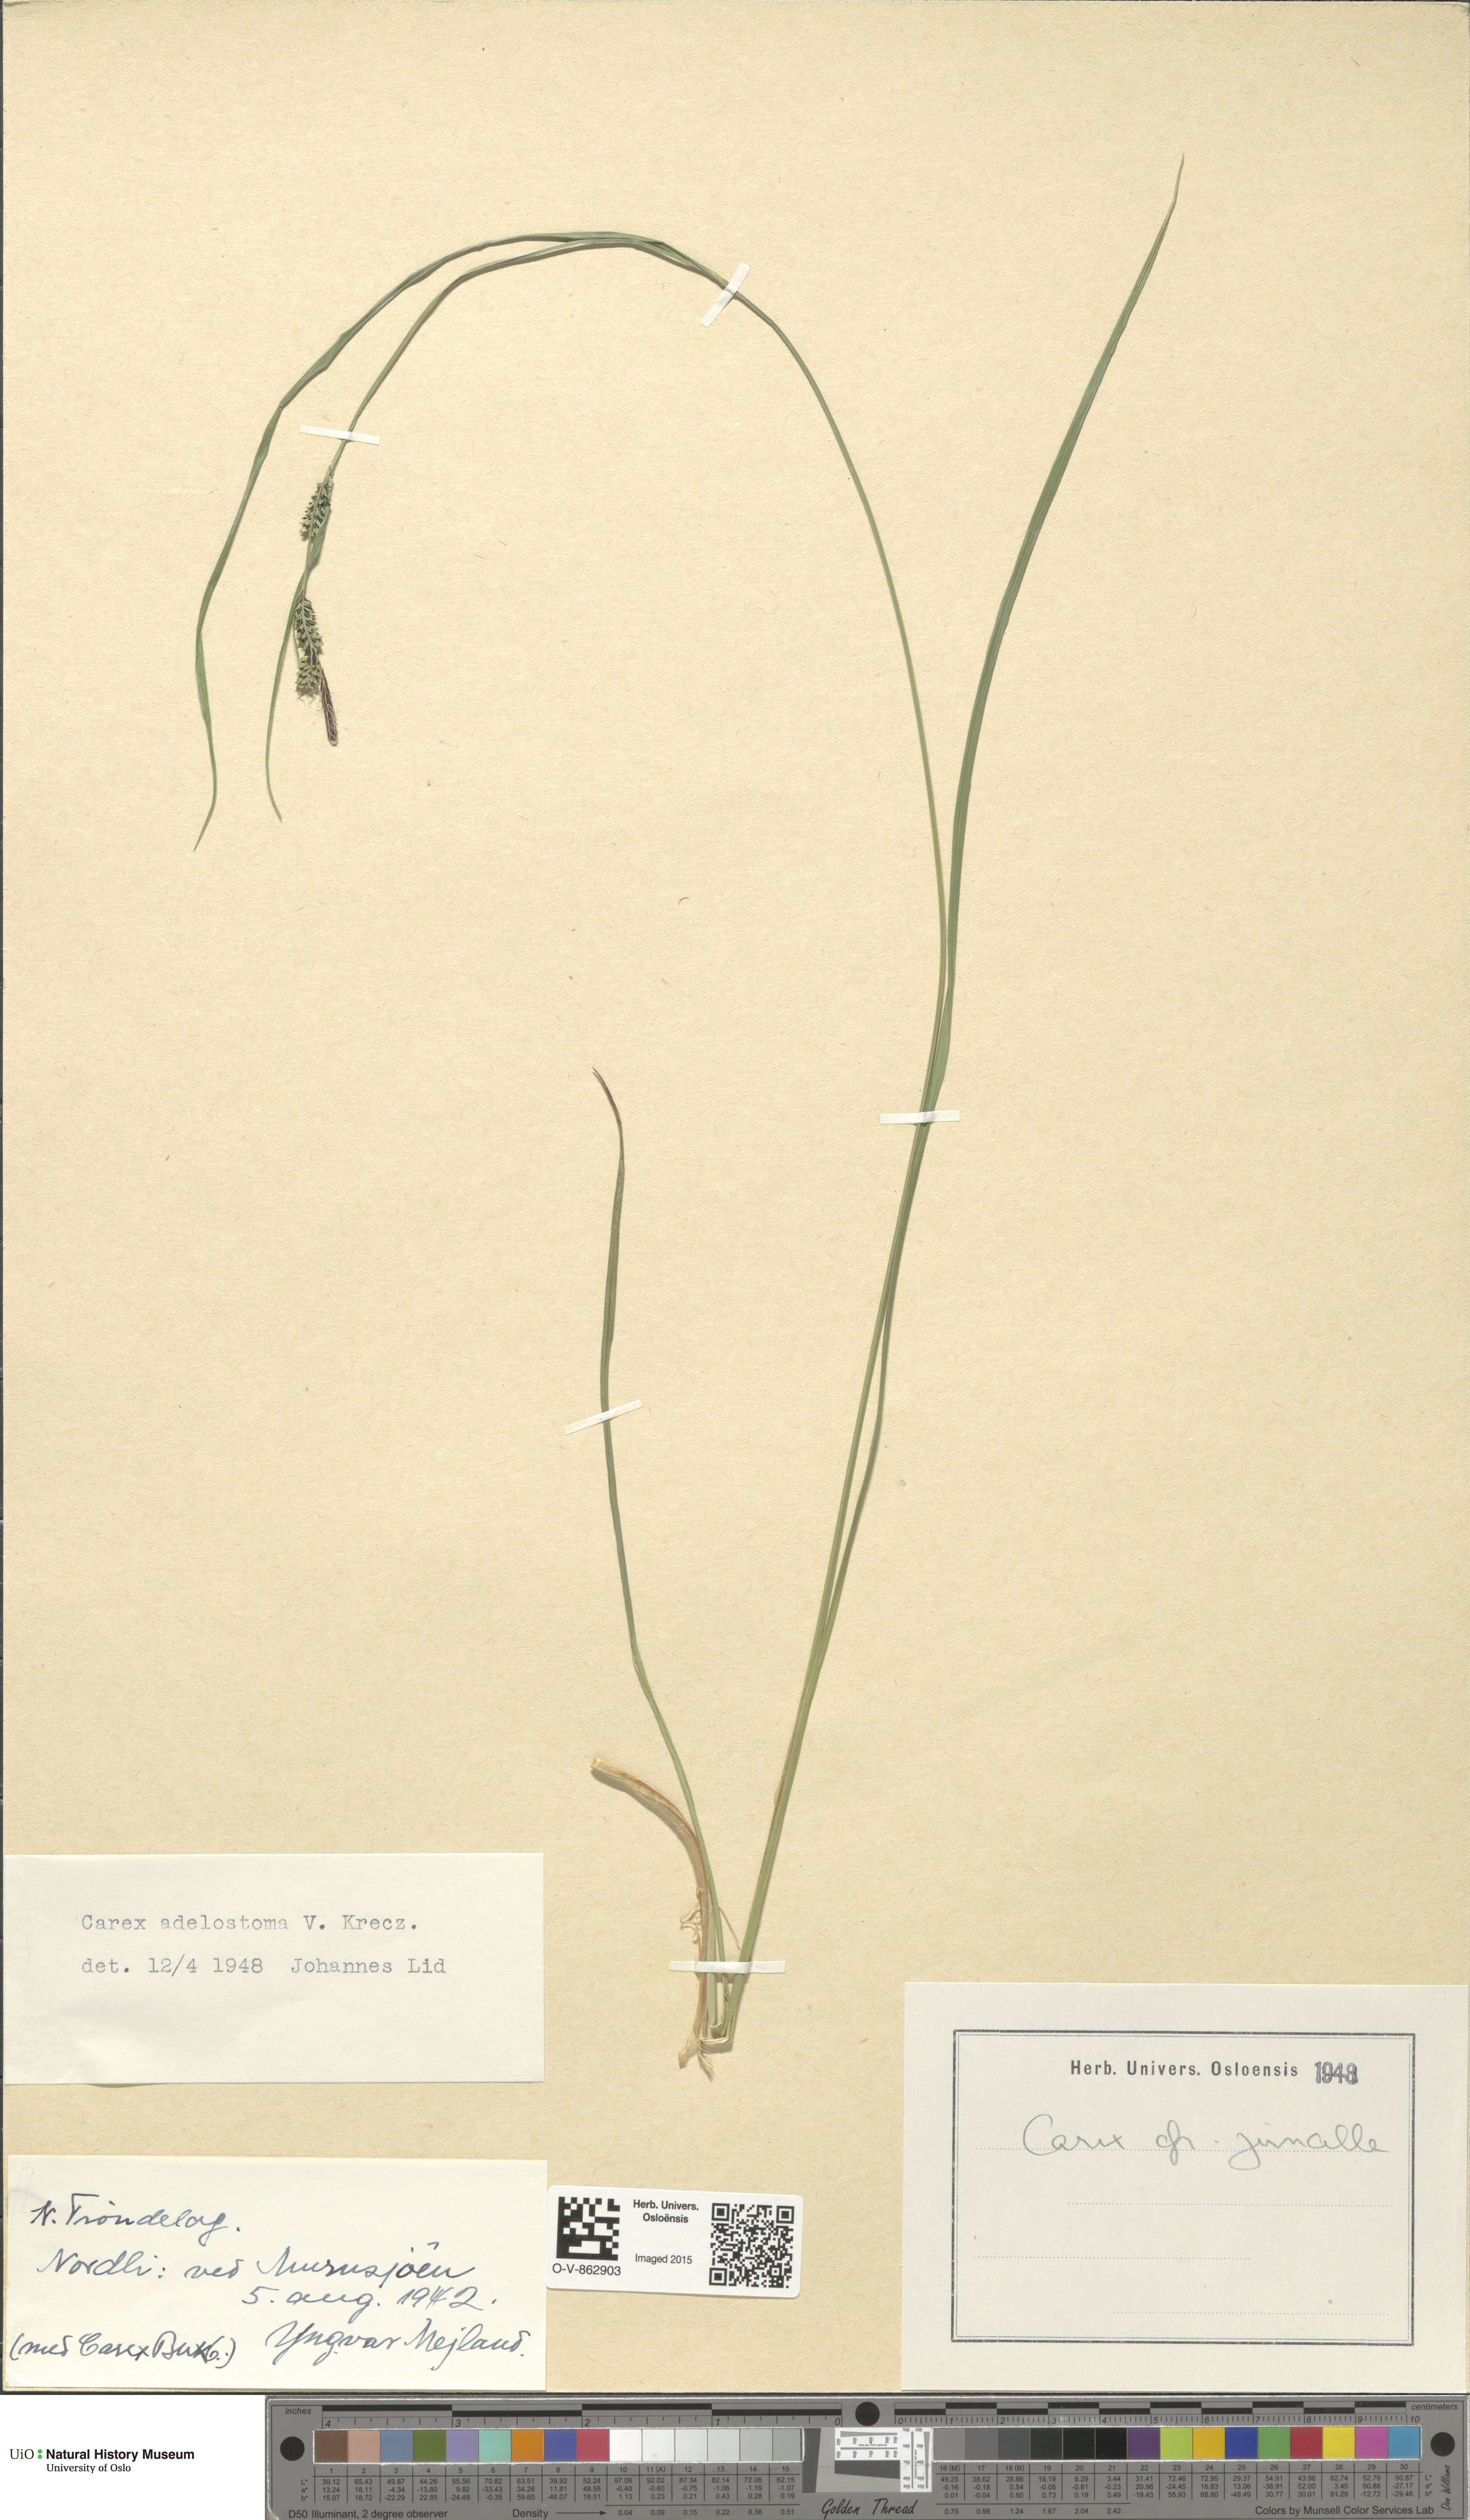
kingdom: Plantae
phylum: Tracheophyta
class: Liliopsida
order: Poales
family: Cyperaceae
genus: Carex
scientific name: Carex nigra
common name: Common sedge
